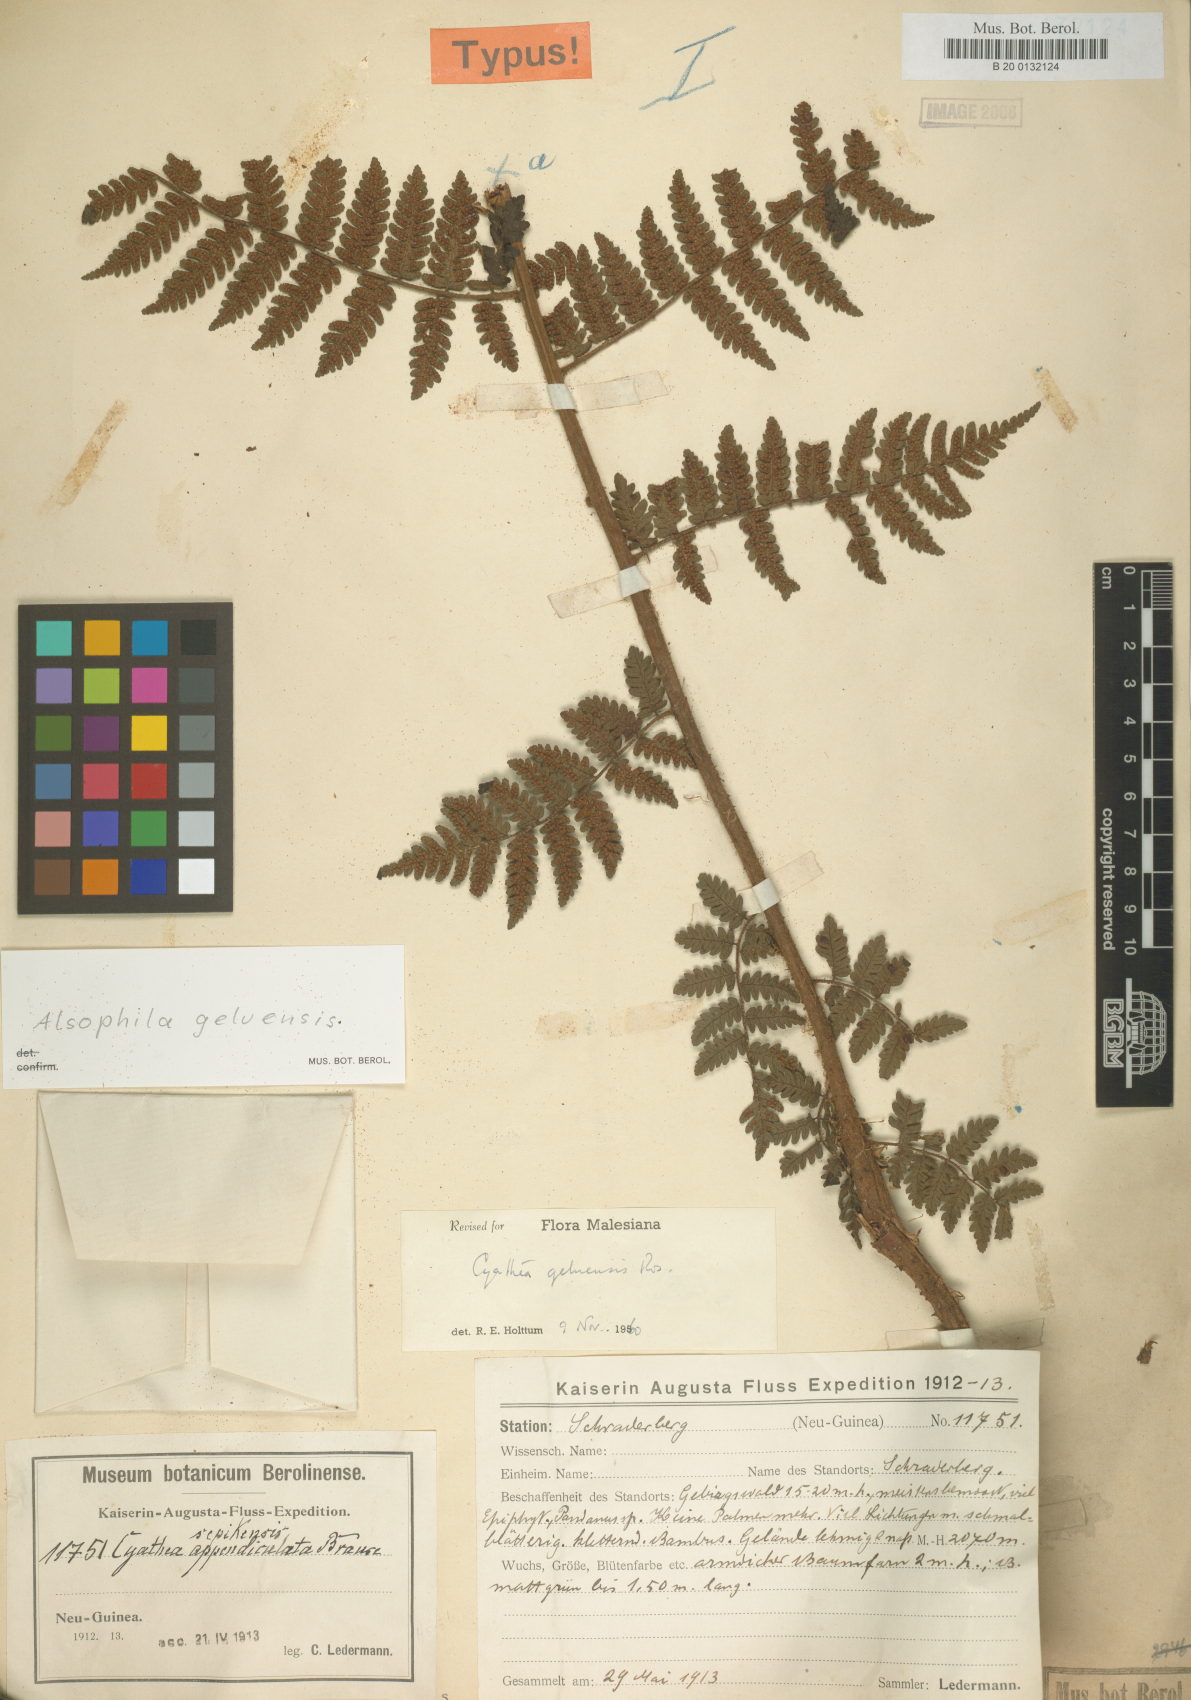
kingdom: Plantae
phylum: Tracheophyta
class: Polypodiopsida
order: Cyatheales
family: Cyatheaceae
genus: Alsophila
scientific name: Alsophila geluensis
